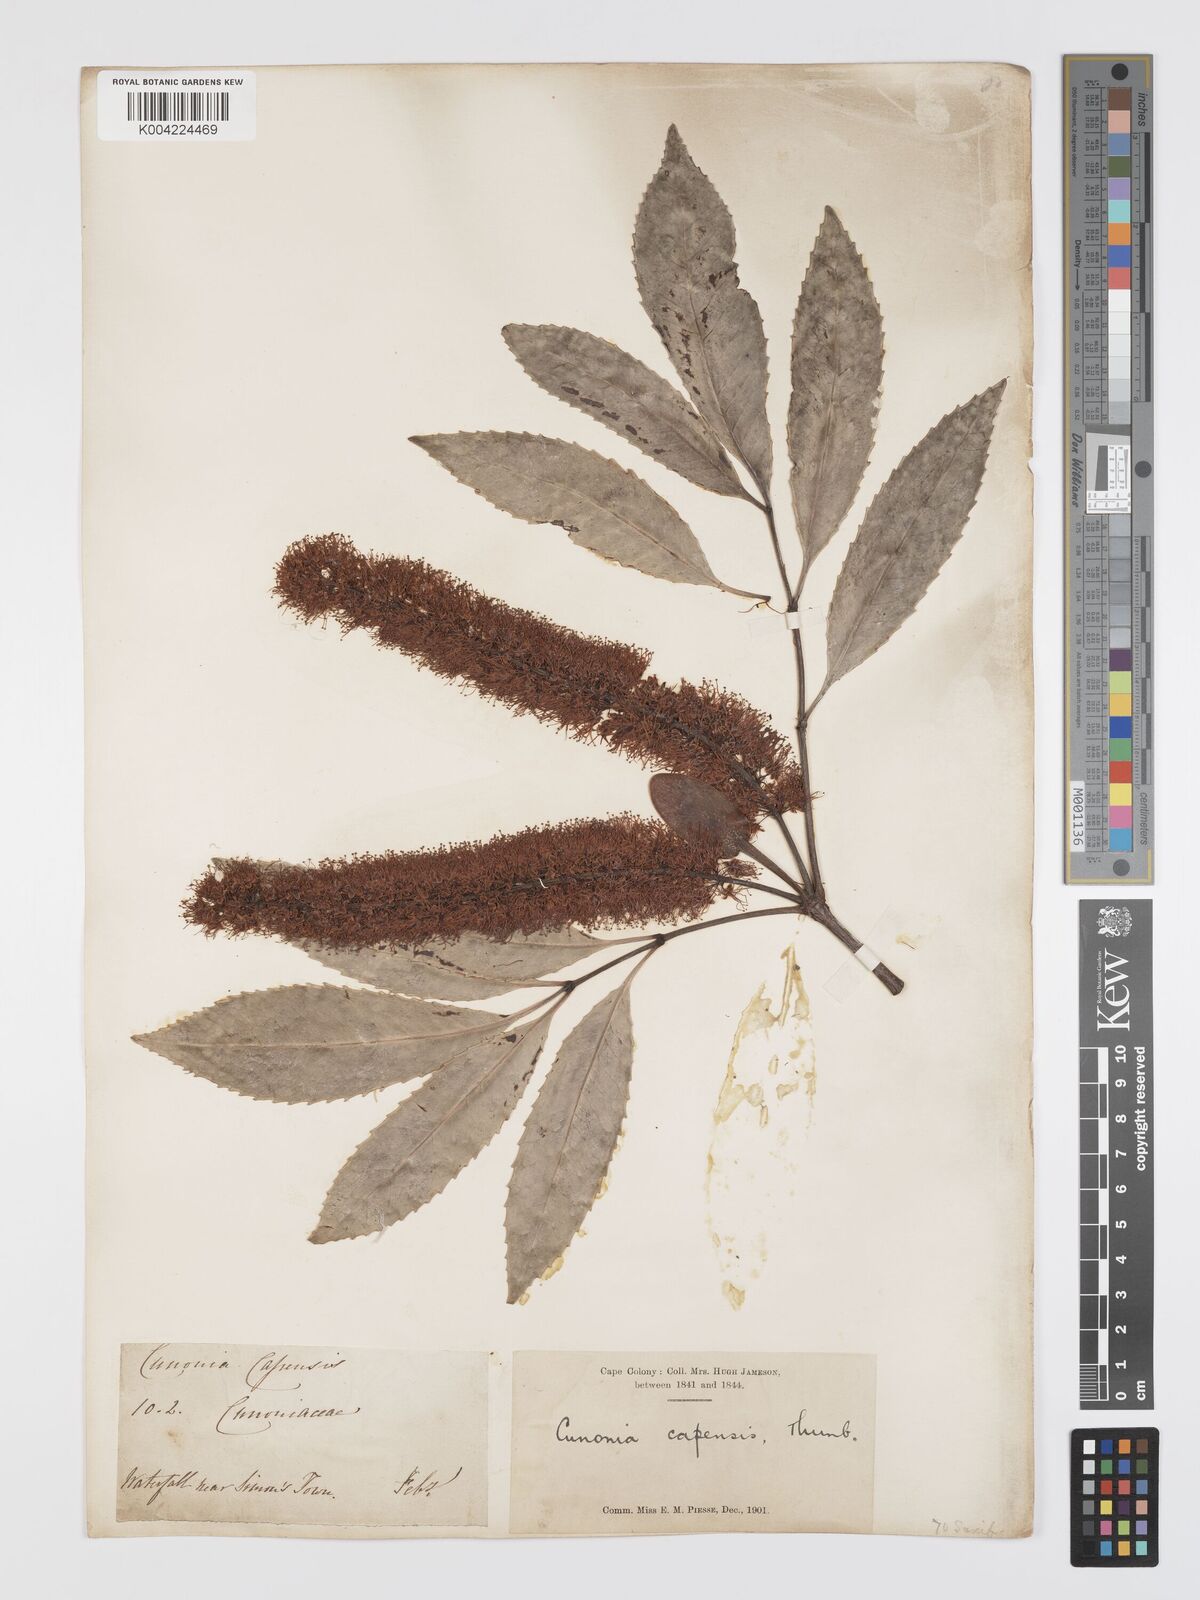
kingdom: Plantae
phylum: Tracheophyta
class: Magnoliopsida
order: Oxalidales
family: Cunoniaceae
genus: Cunonia
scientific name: Cunonia capensis
